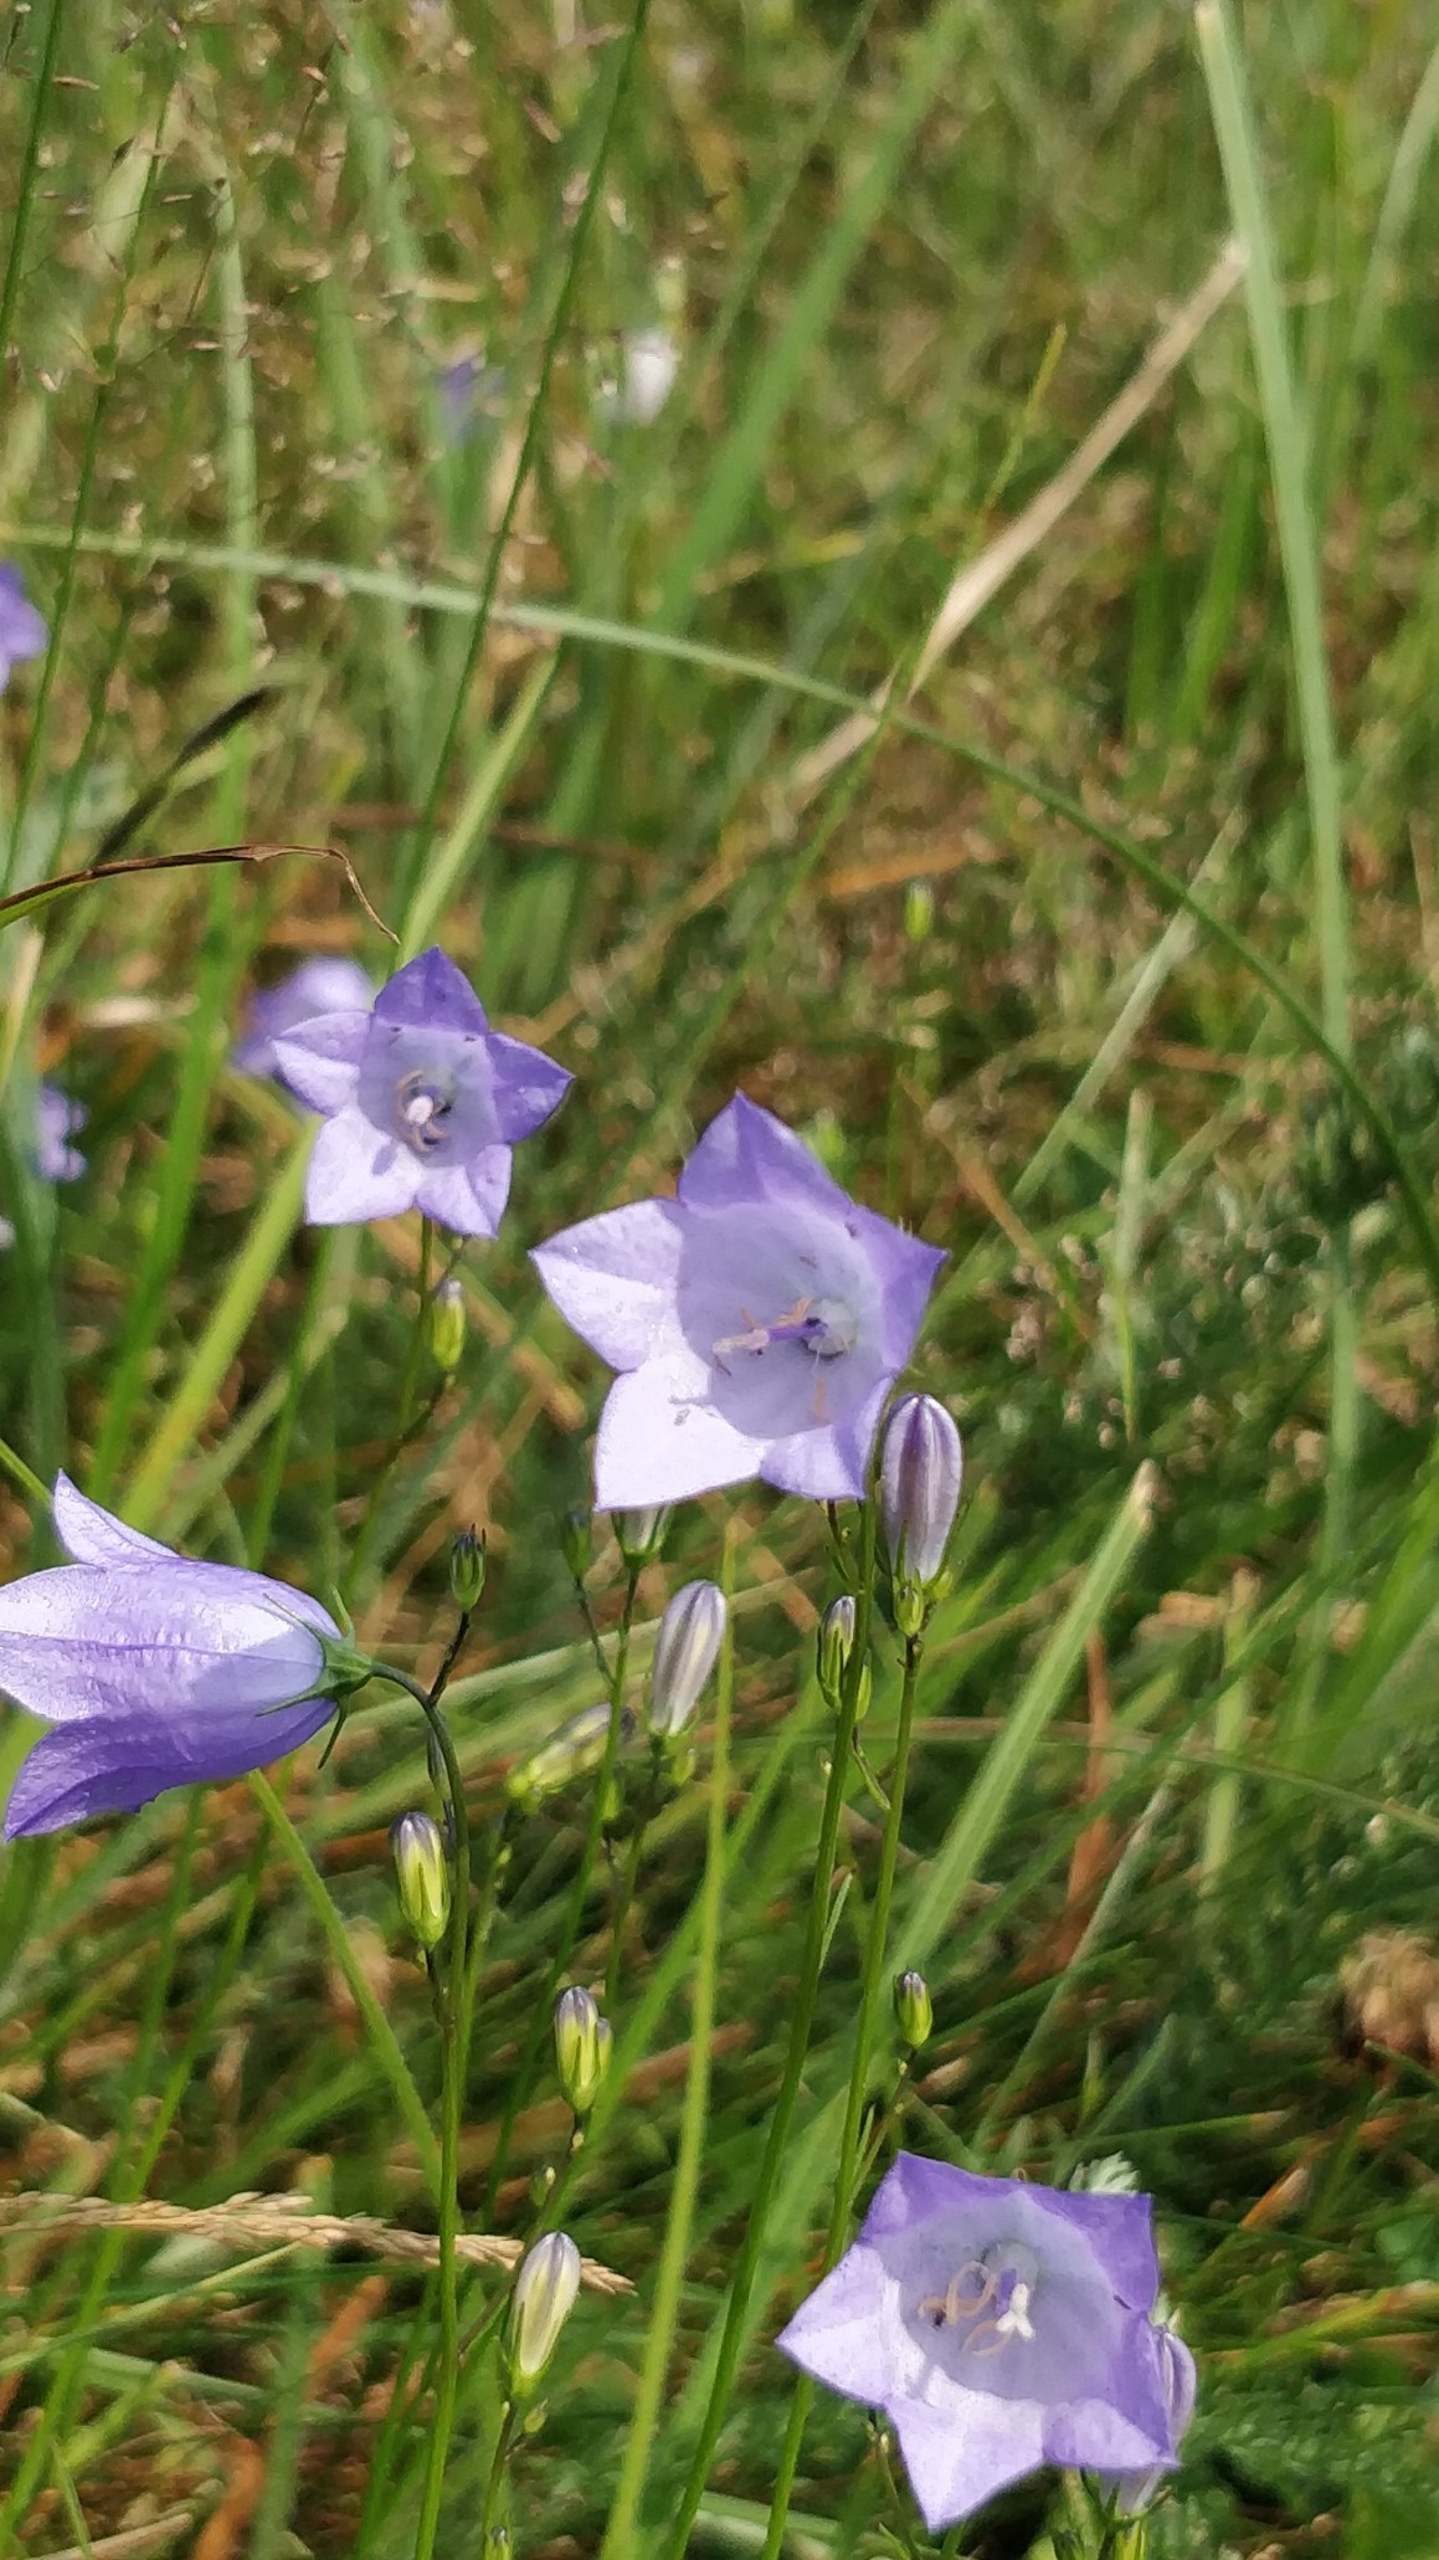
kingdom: Plantae
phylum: Tracheophyta
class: Magnoliopsida
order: Asterales
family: Campanulaceae
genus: Campanula
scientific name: Campanula rotundifolia
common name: Liden klokke
